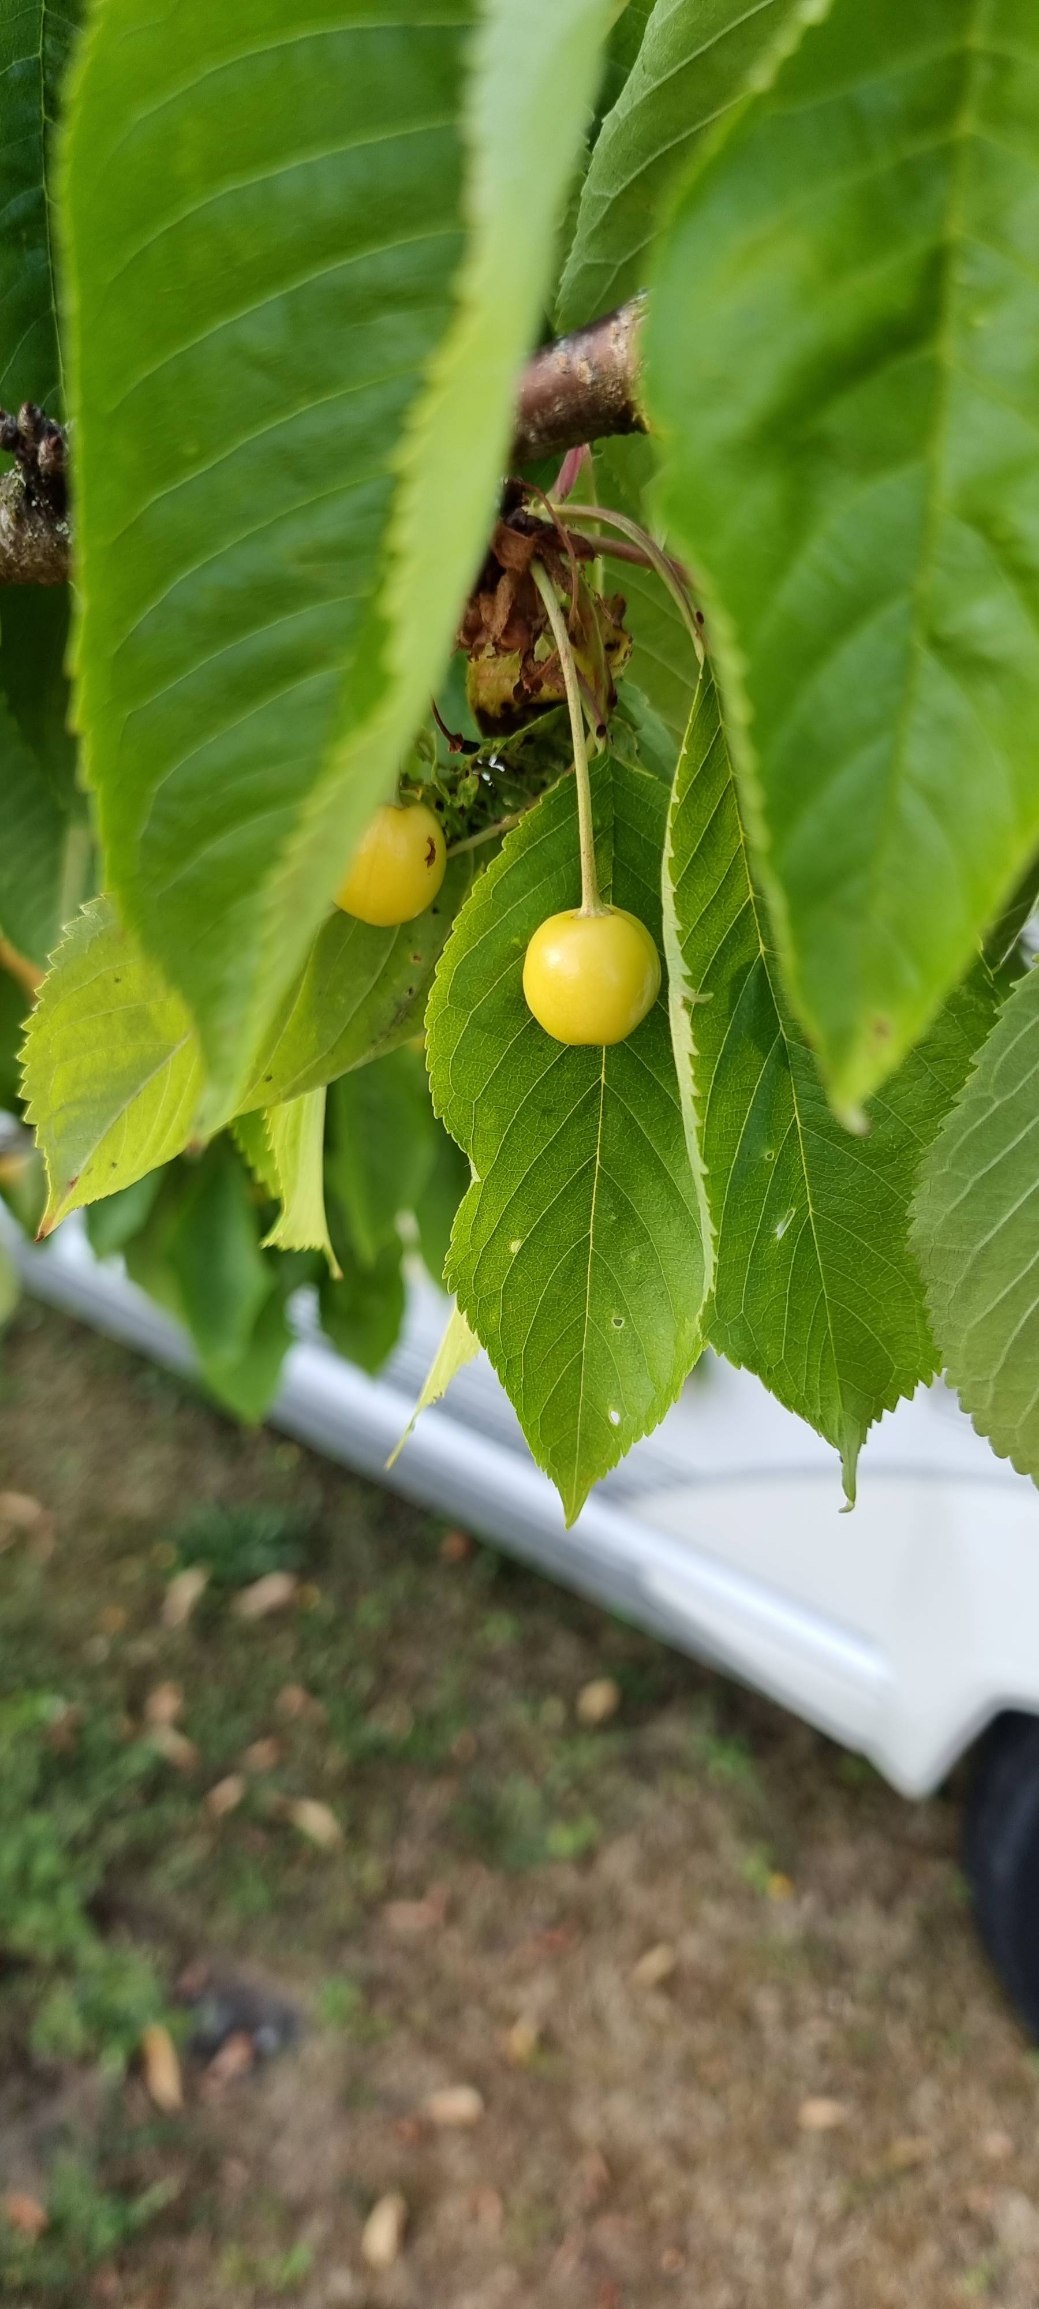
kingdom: Plantae
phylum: Tracheophyta
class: Magnoliopsida
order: Rosales
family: Rosaceae
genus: Prunus
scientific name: Prunus avium
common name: Fugle-kirsebær
